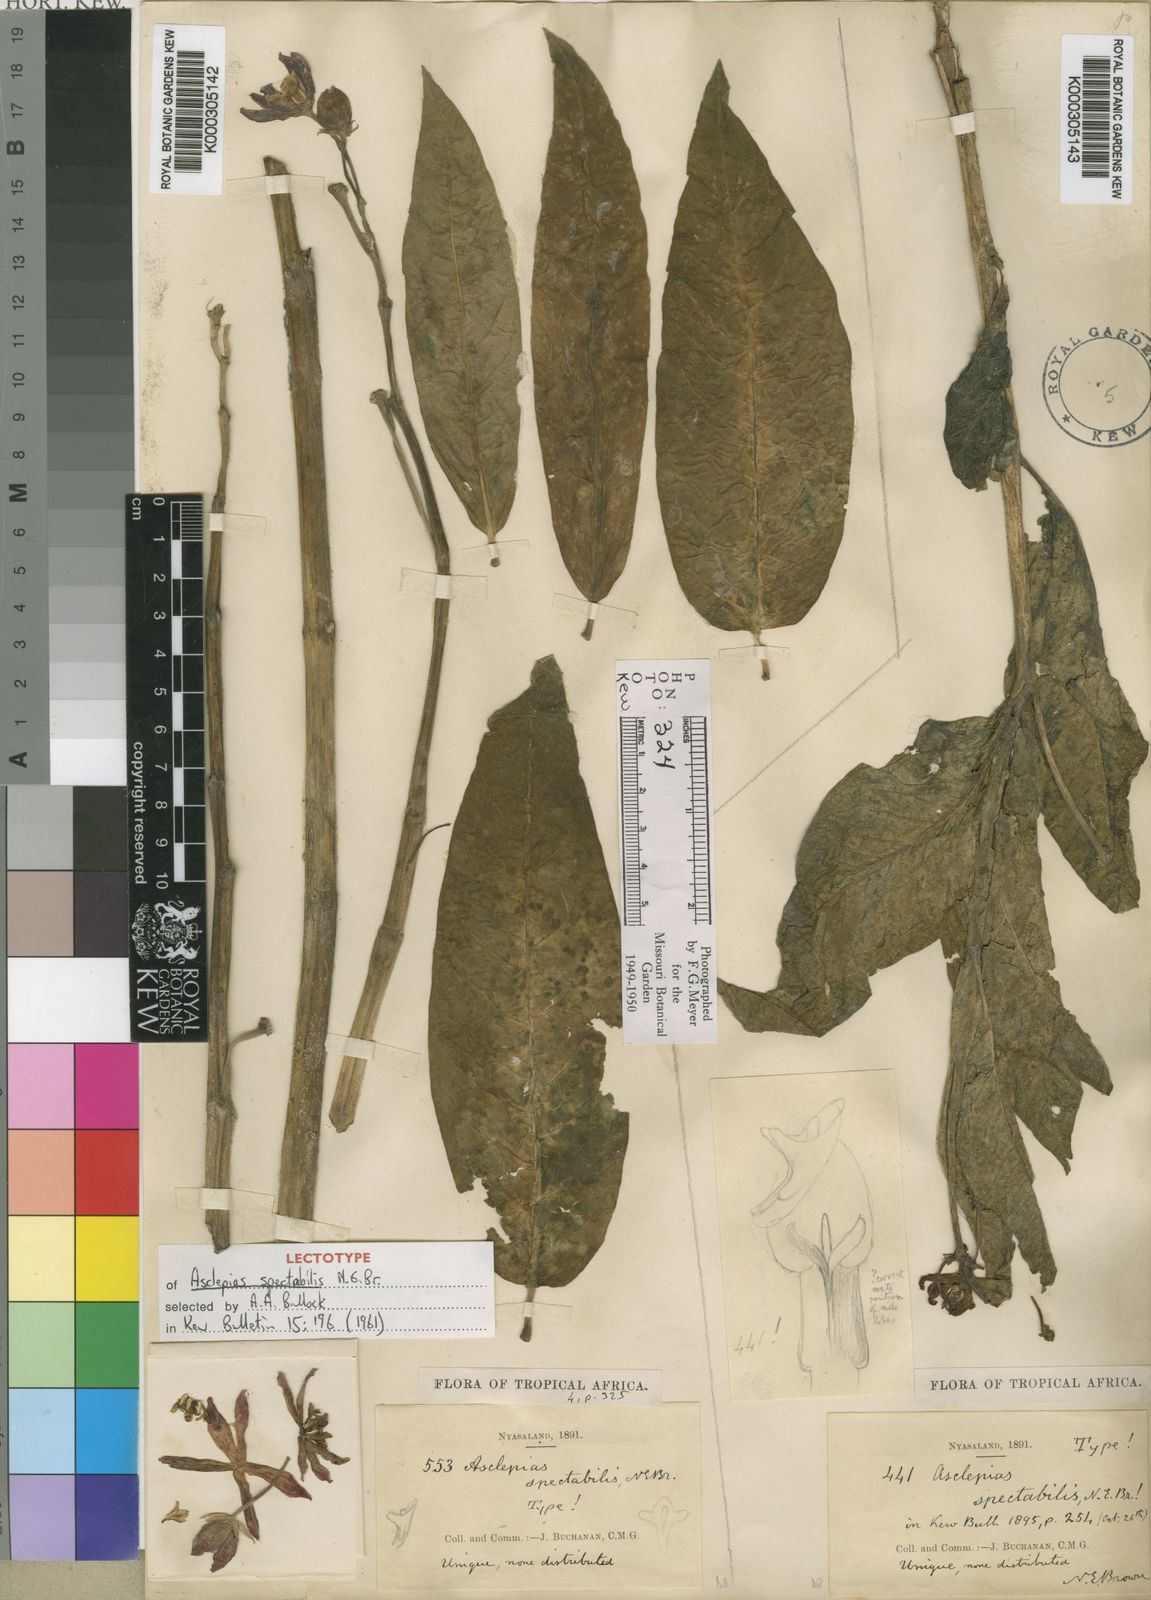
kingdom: Plantae
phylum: Tracheophyta
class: Magnoliopsida
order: Gentianales
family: Apocynaceae
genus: Stathmostelma
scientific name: Stathmostelma spectabile
